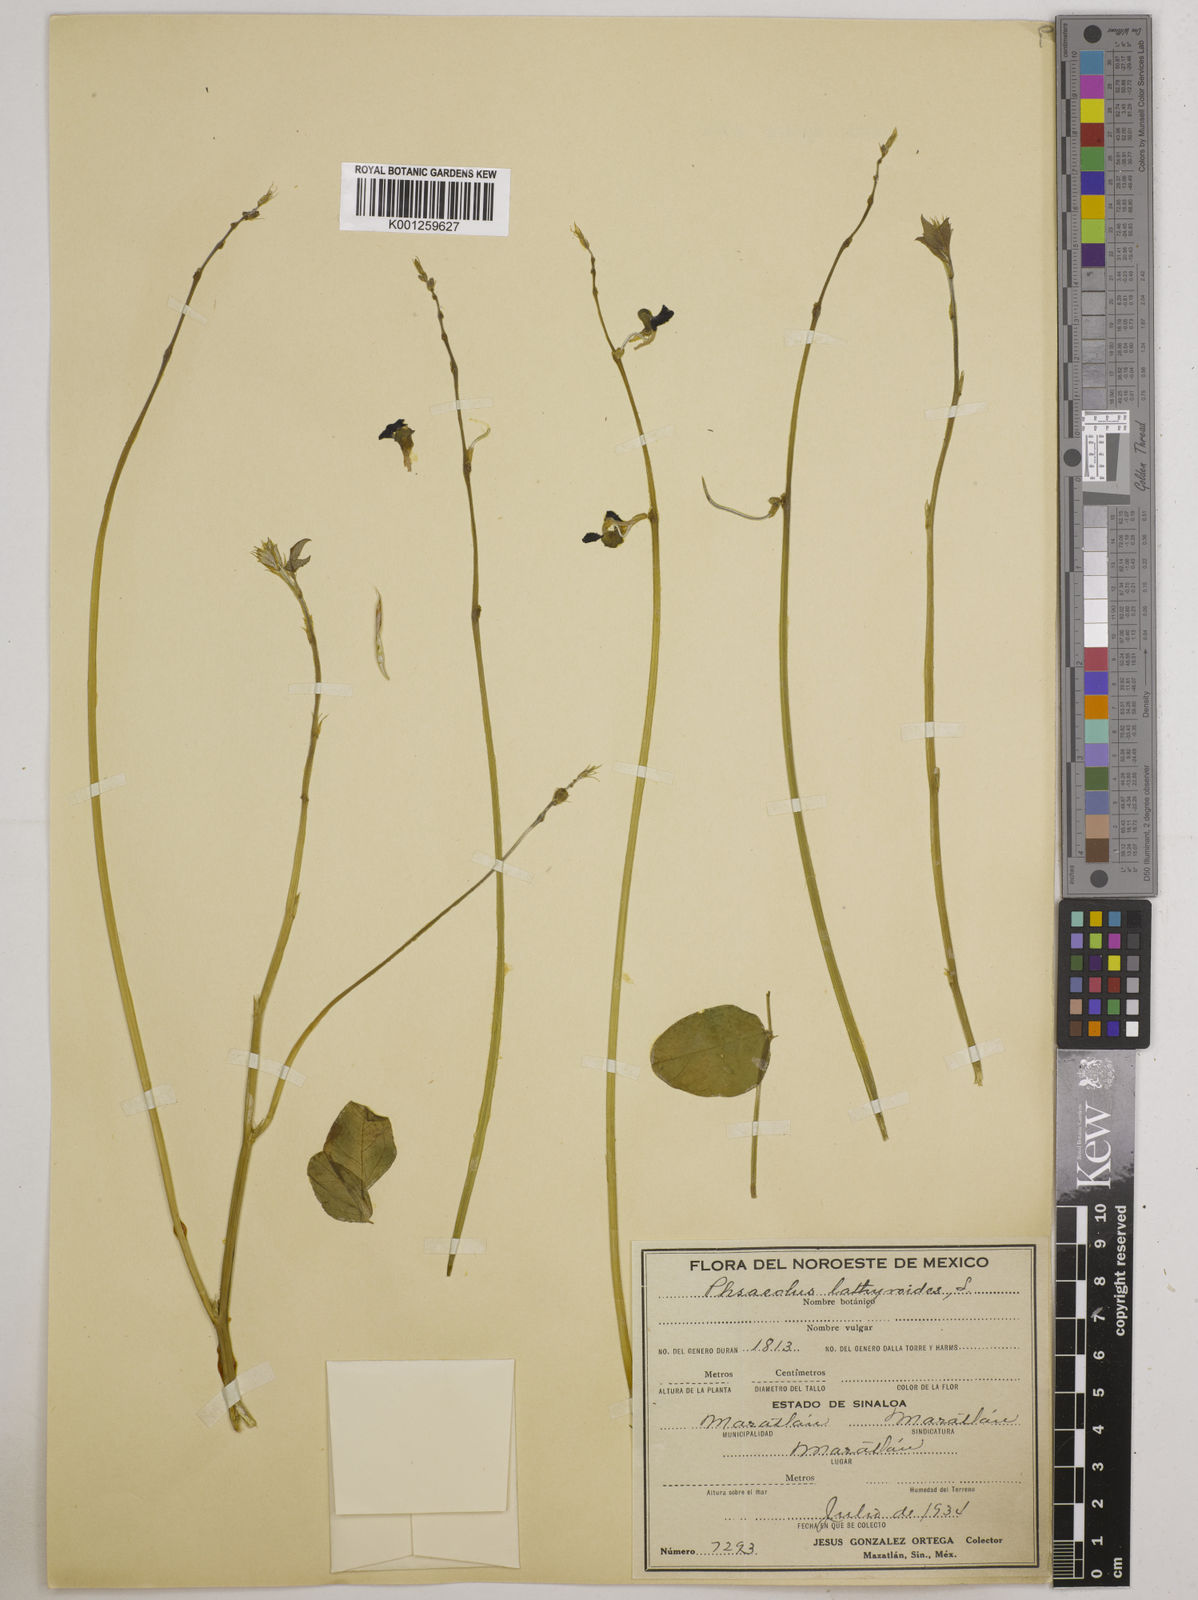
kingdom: Plantae
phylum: Tracheophyta
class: Magnoliopsida
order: Fabales
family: Fabaceae
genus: Macroptilium
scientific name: Macroptilium lathyroides
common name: Wild bushbean
